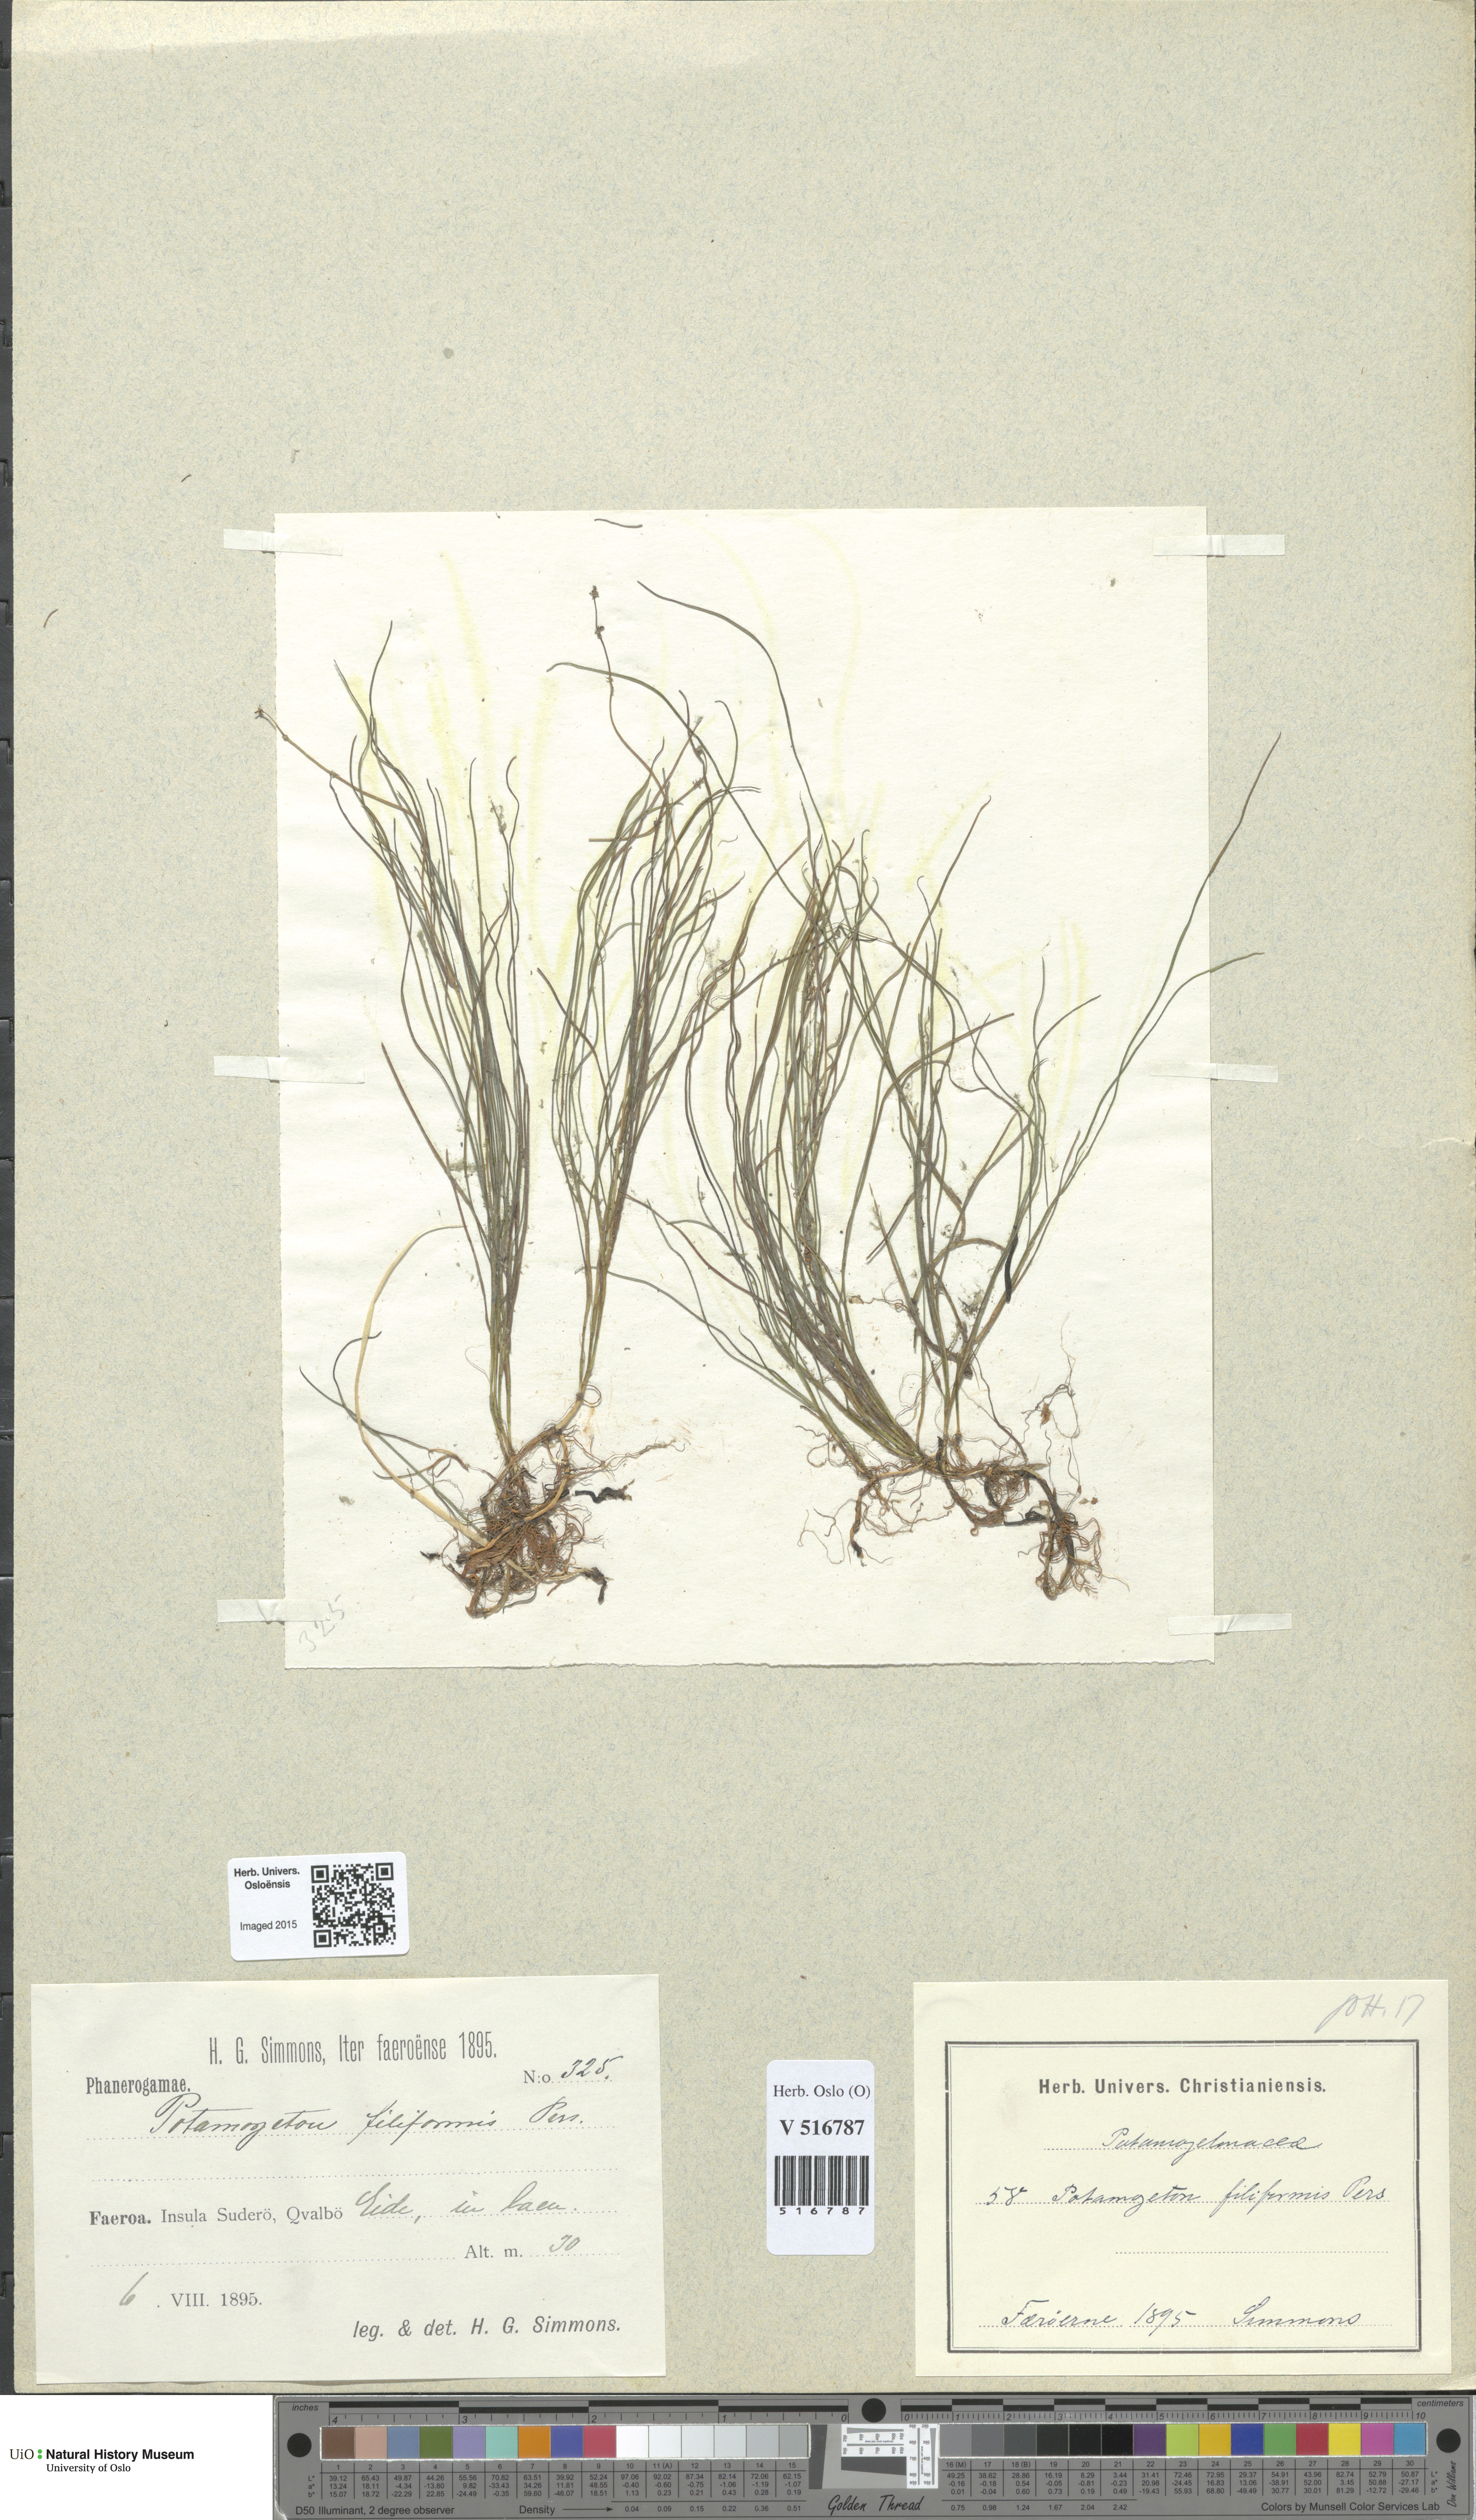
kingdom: Plantae
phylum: Tracheophyta
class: Liliopsida
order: Alismatales
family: Potamogetonaceae
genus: Stuckenia
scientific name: Stuckenia filiformis
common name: Alpine thread-leaved pondweed
